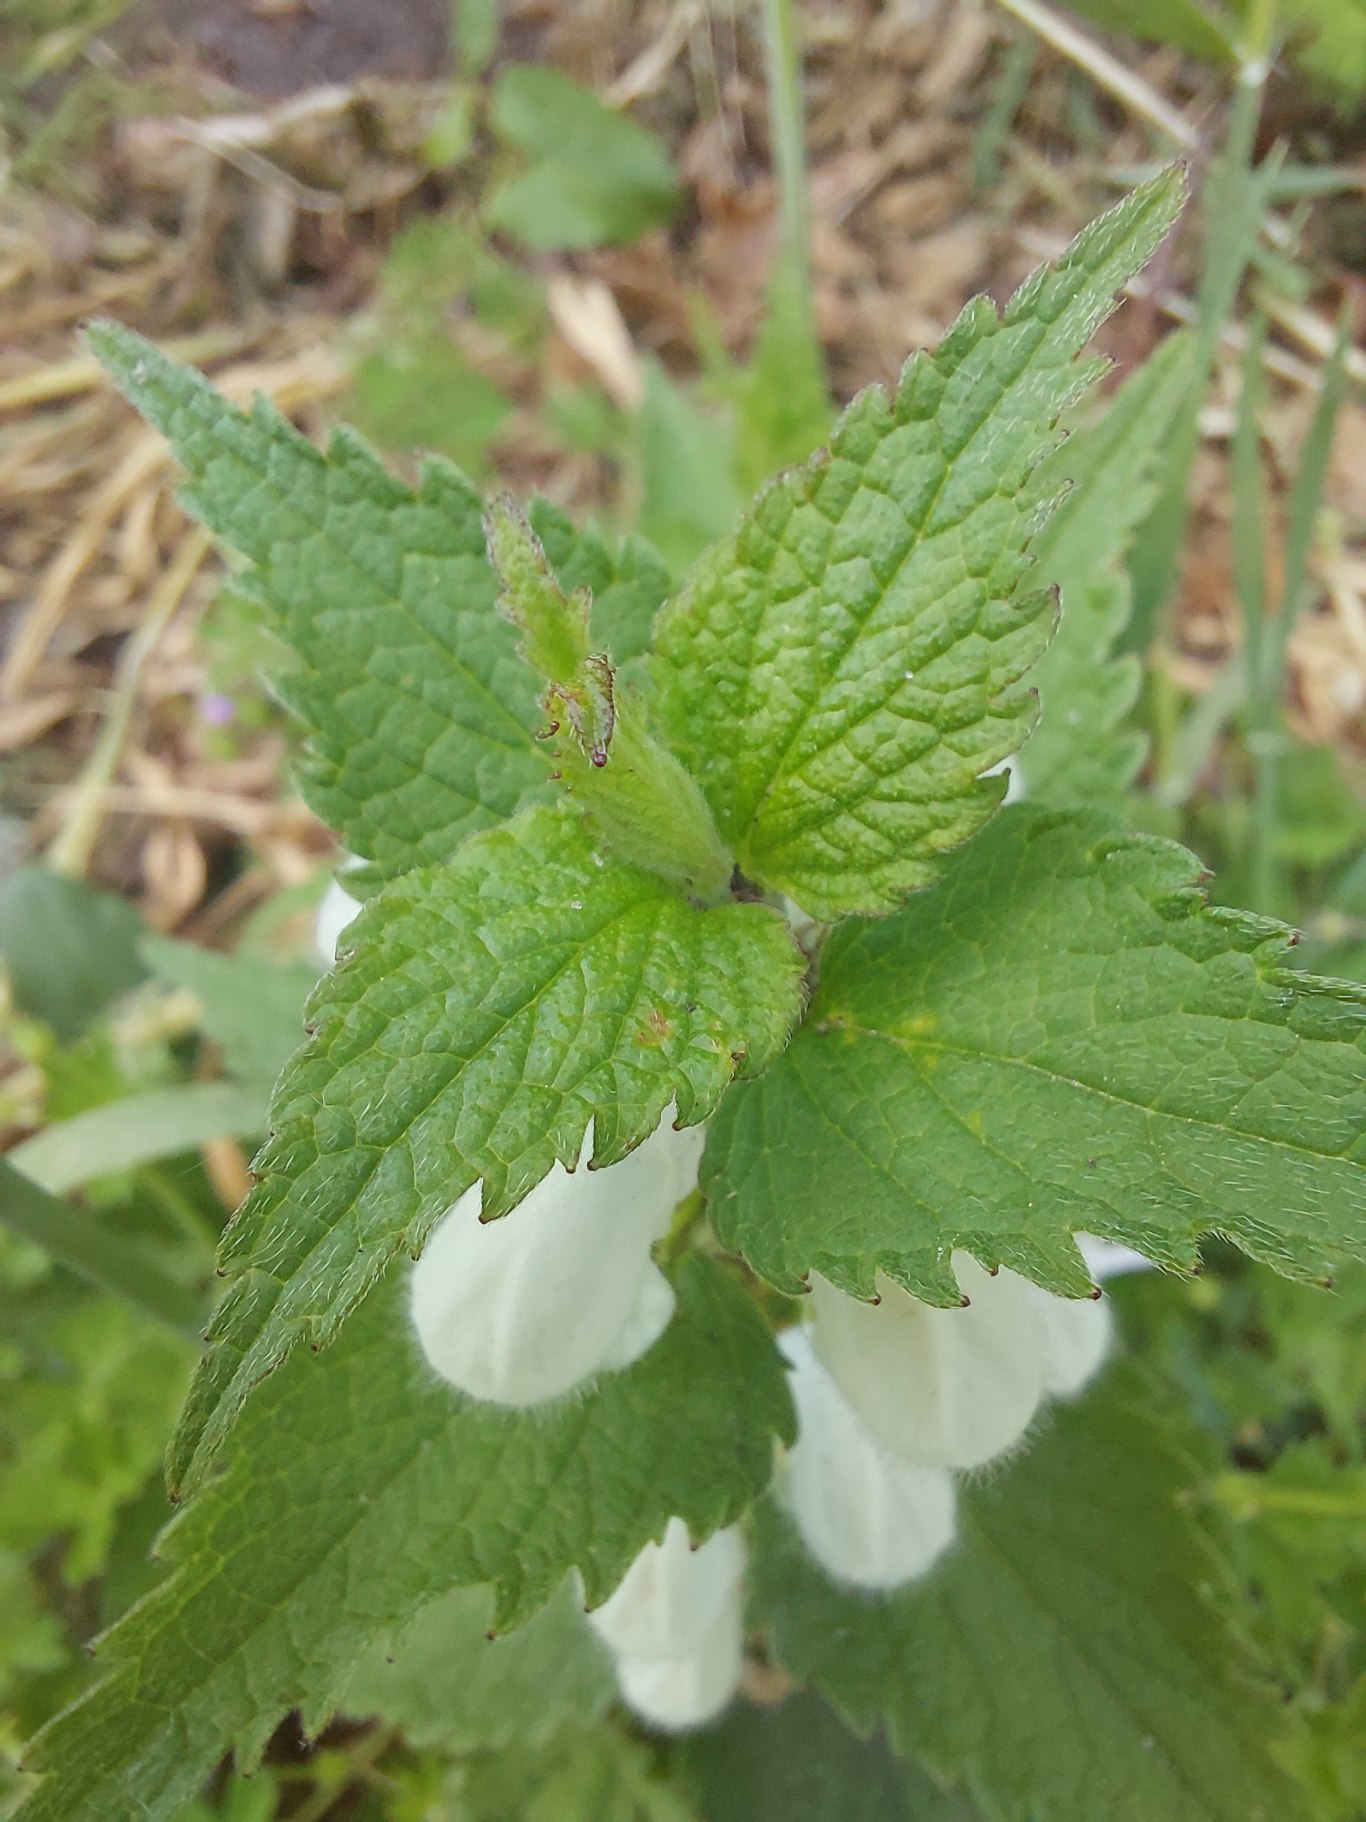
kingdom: Plantae
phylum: Tracheophyta
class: Magnoliopsida
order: Lamiales
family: Lamiaceae
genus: Lamium
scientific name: Lamium album
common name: Døvnælde
